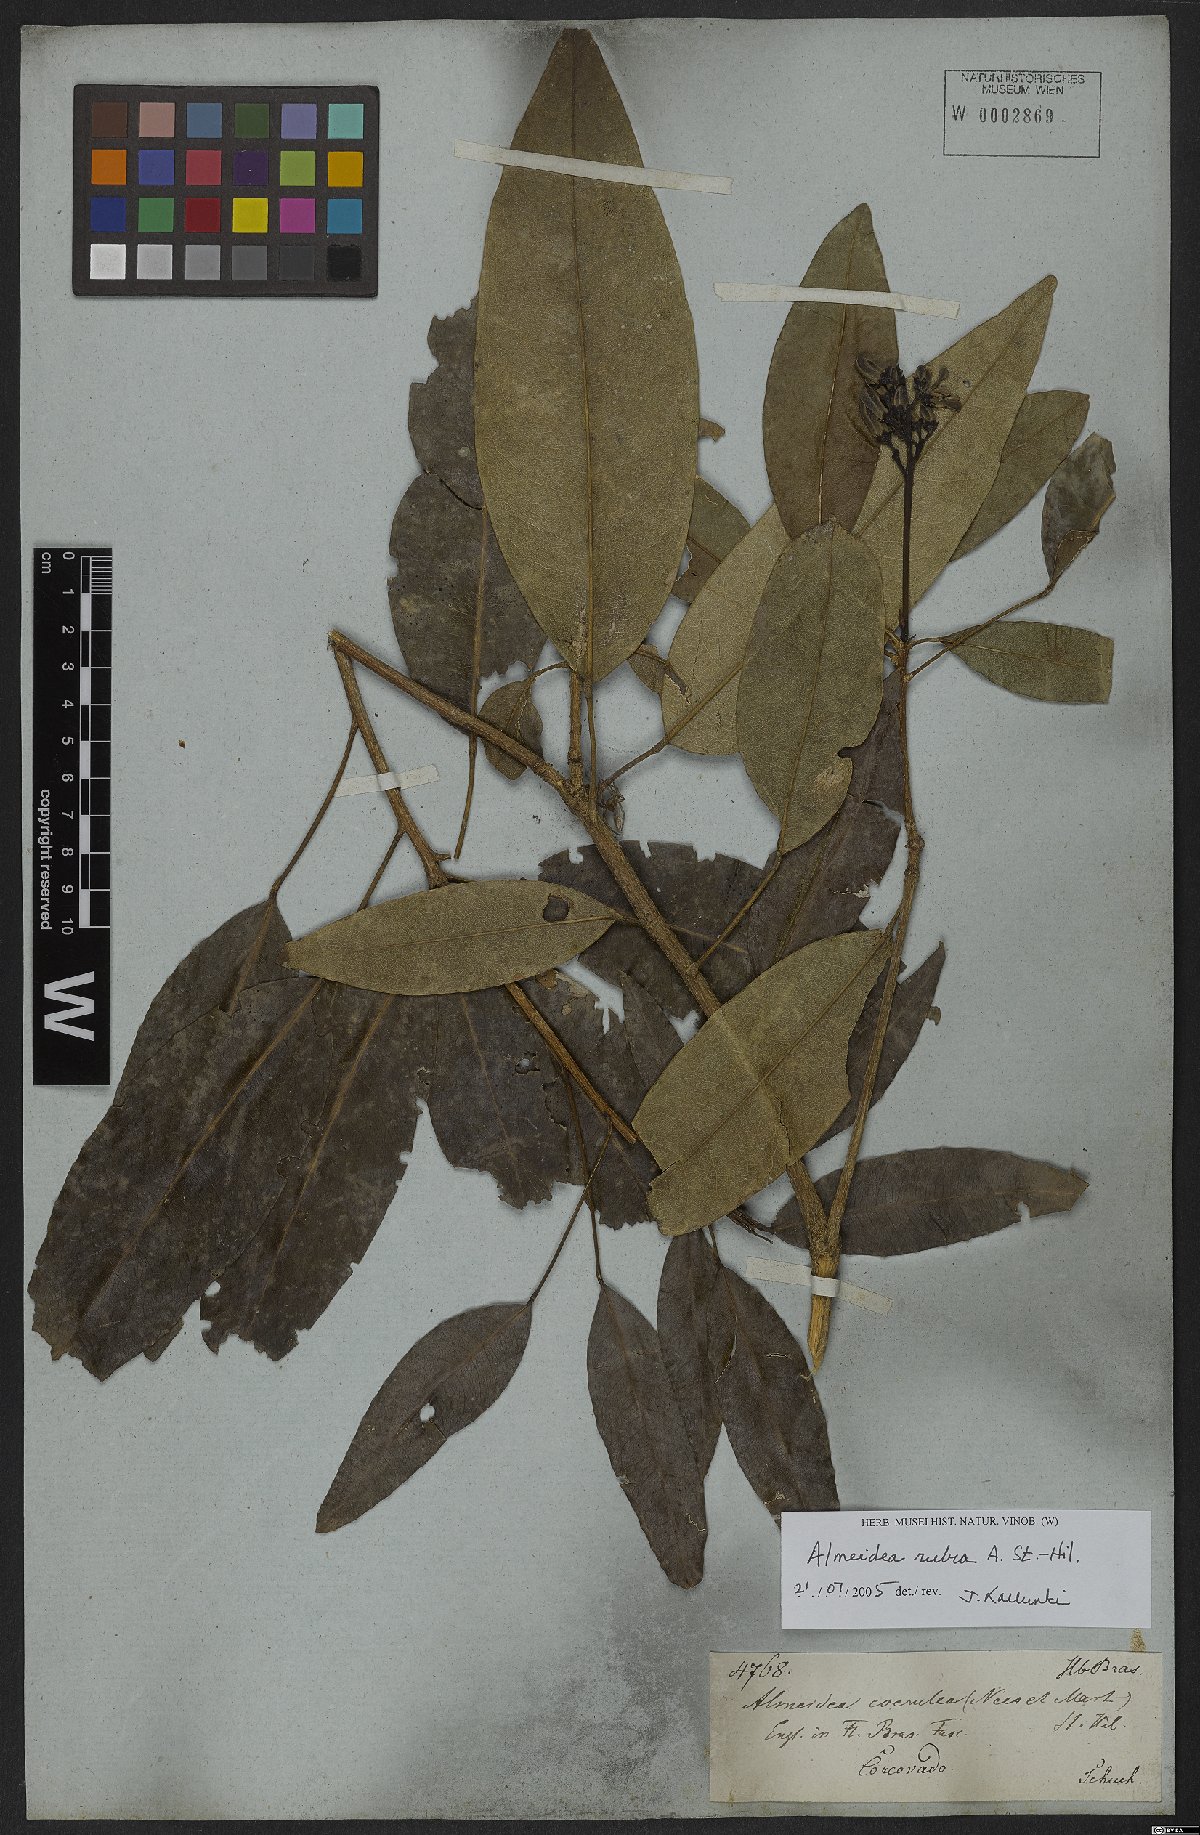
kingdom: Plantae
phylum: Tracheophyta
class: Magnoliopsida
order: Sapindales
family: Rutaceae
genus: Conchocarpus
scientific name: Conchocarpus ruber
